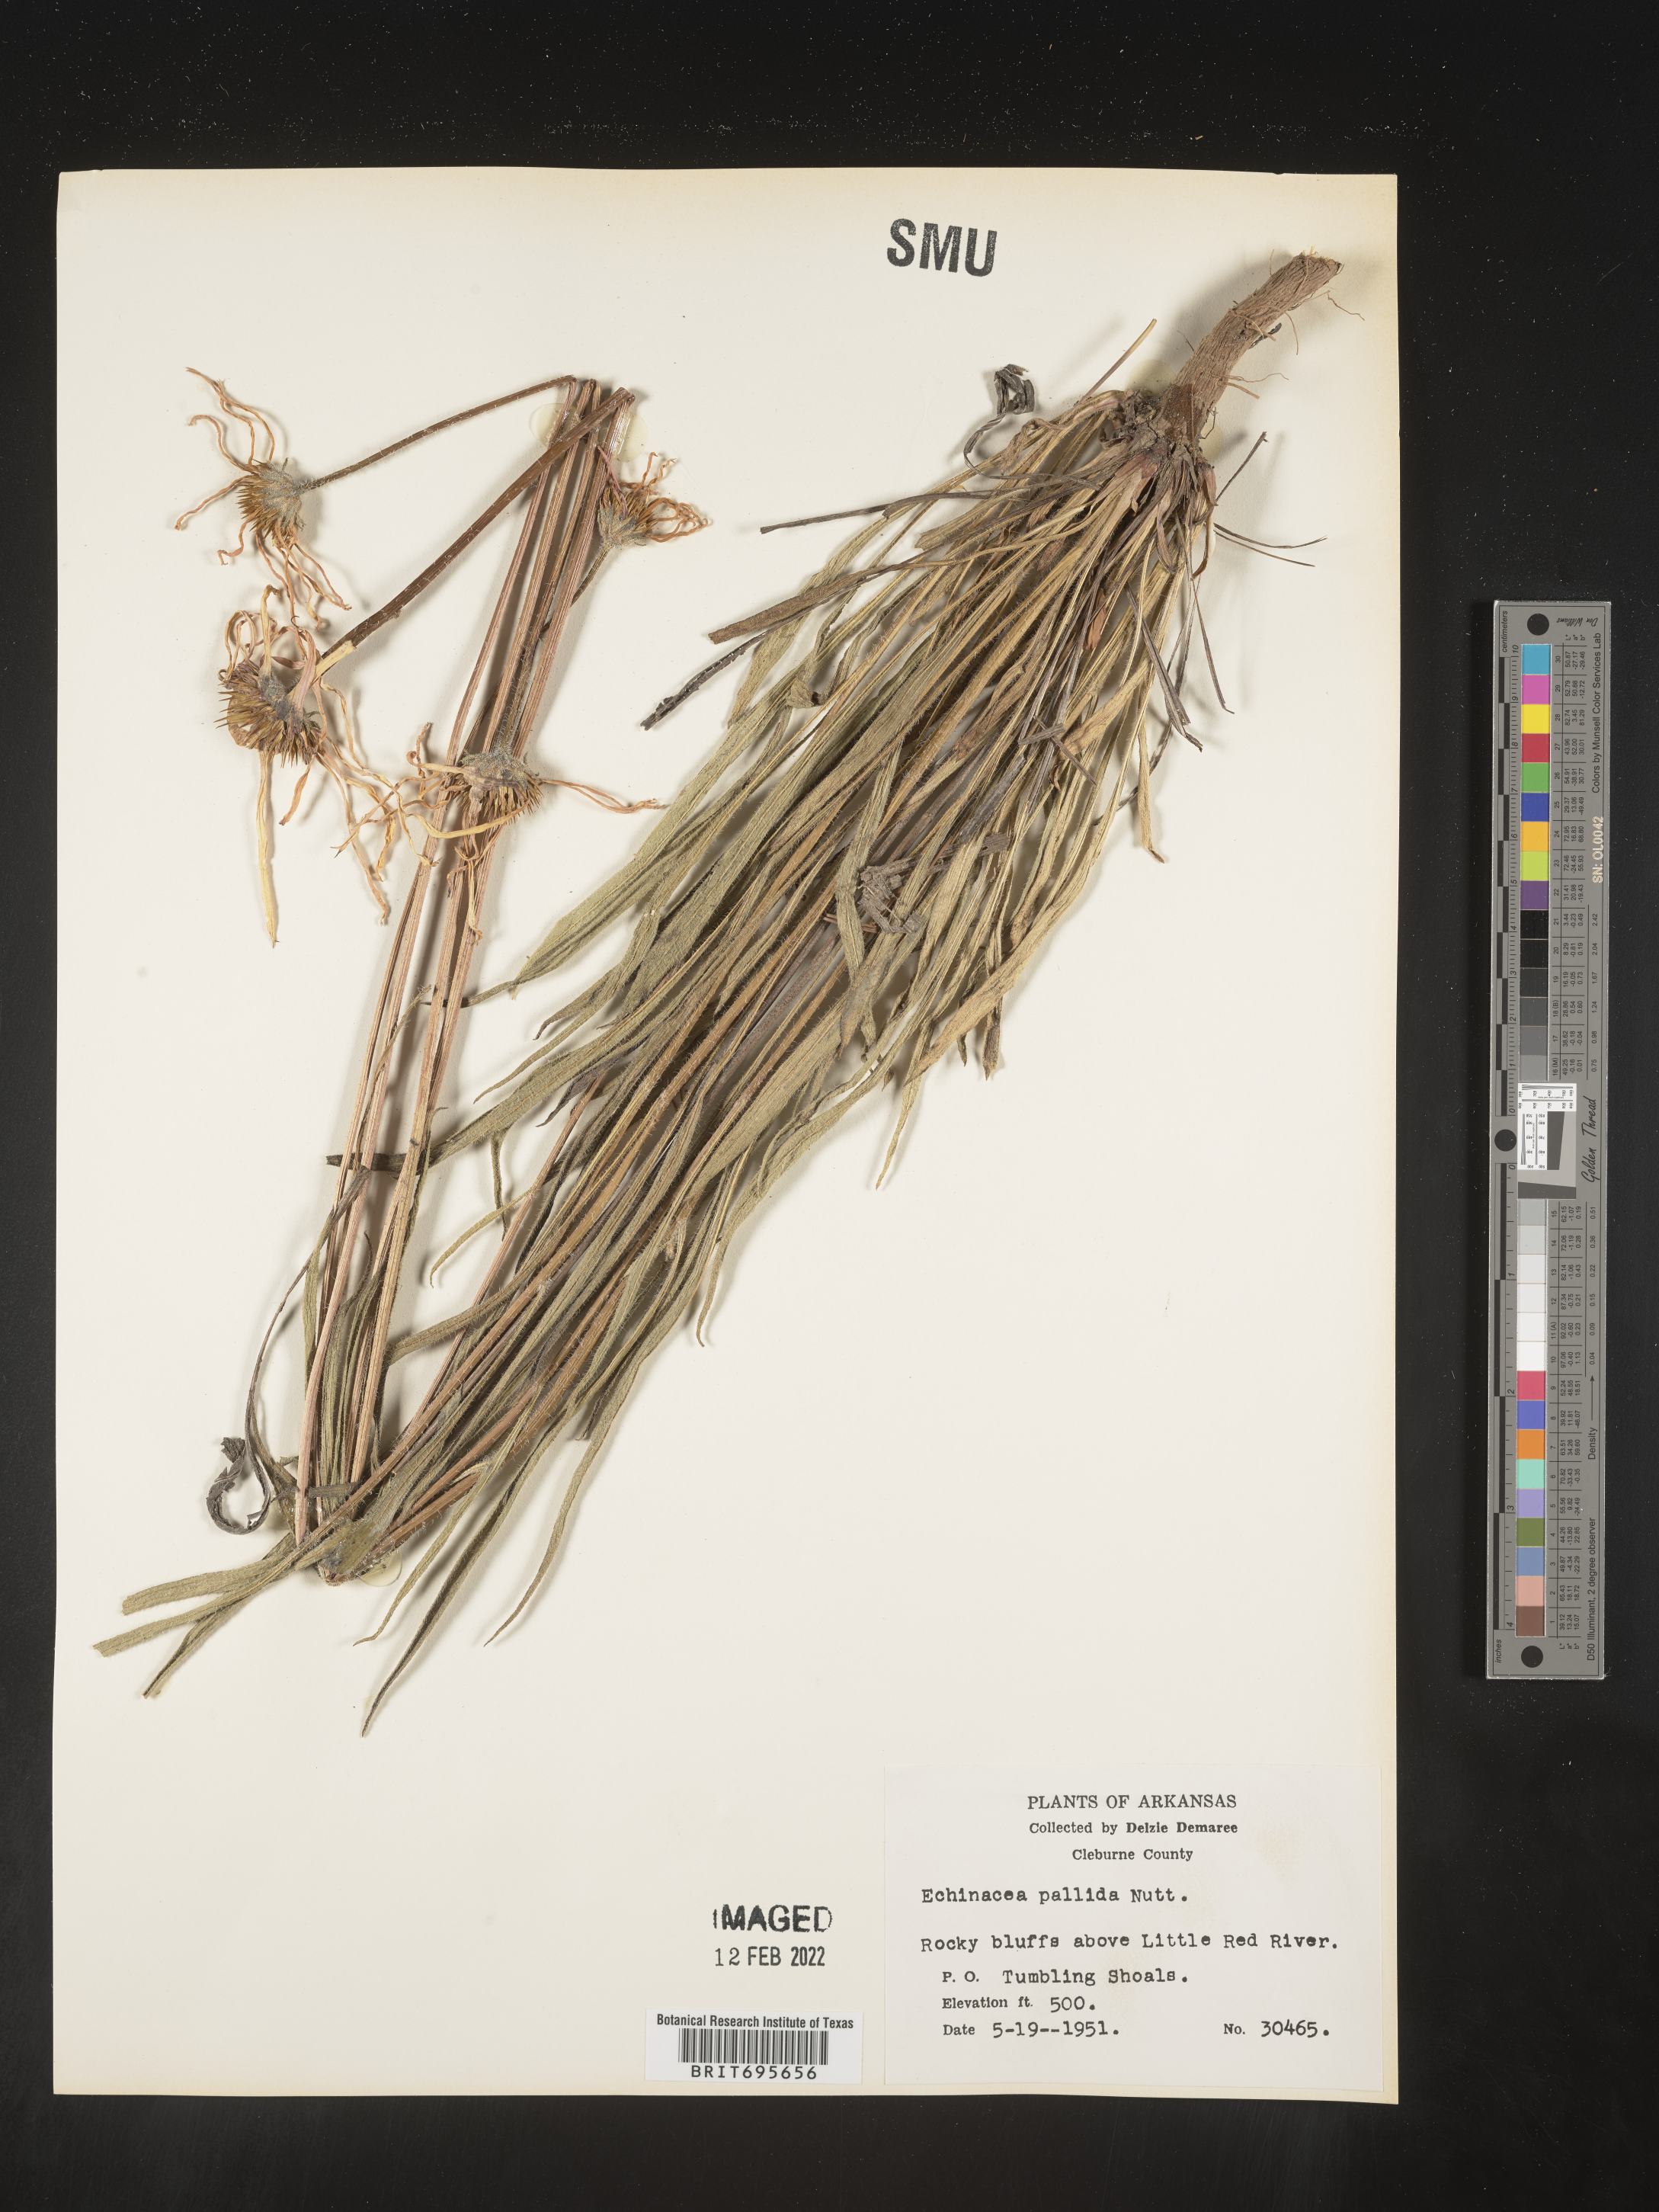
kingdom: Plantae
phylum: Tracheophyta
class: Magnoliopsida
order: Asterales
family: Asteraceae
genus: Echinacea
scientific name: Echinacea pallida
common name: Pale echinacea
